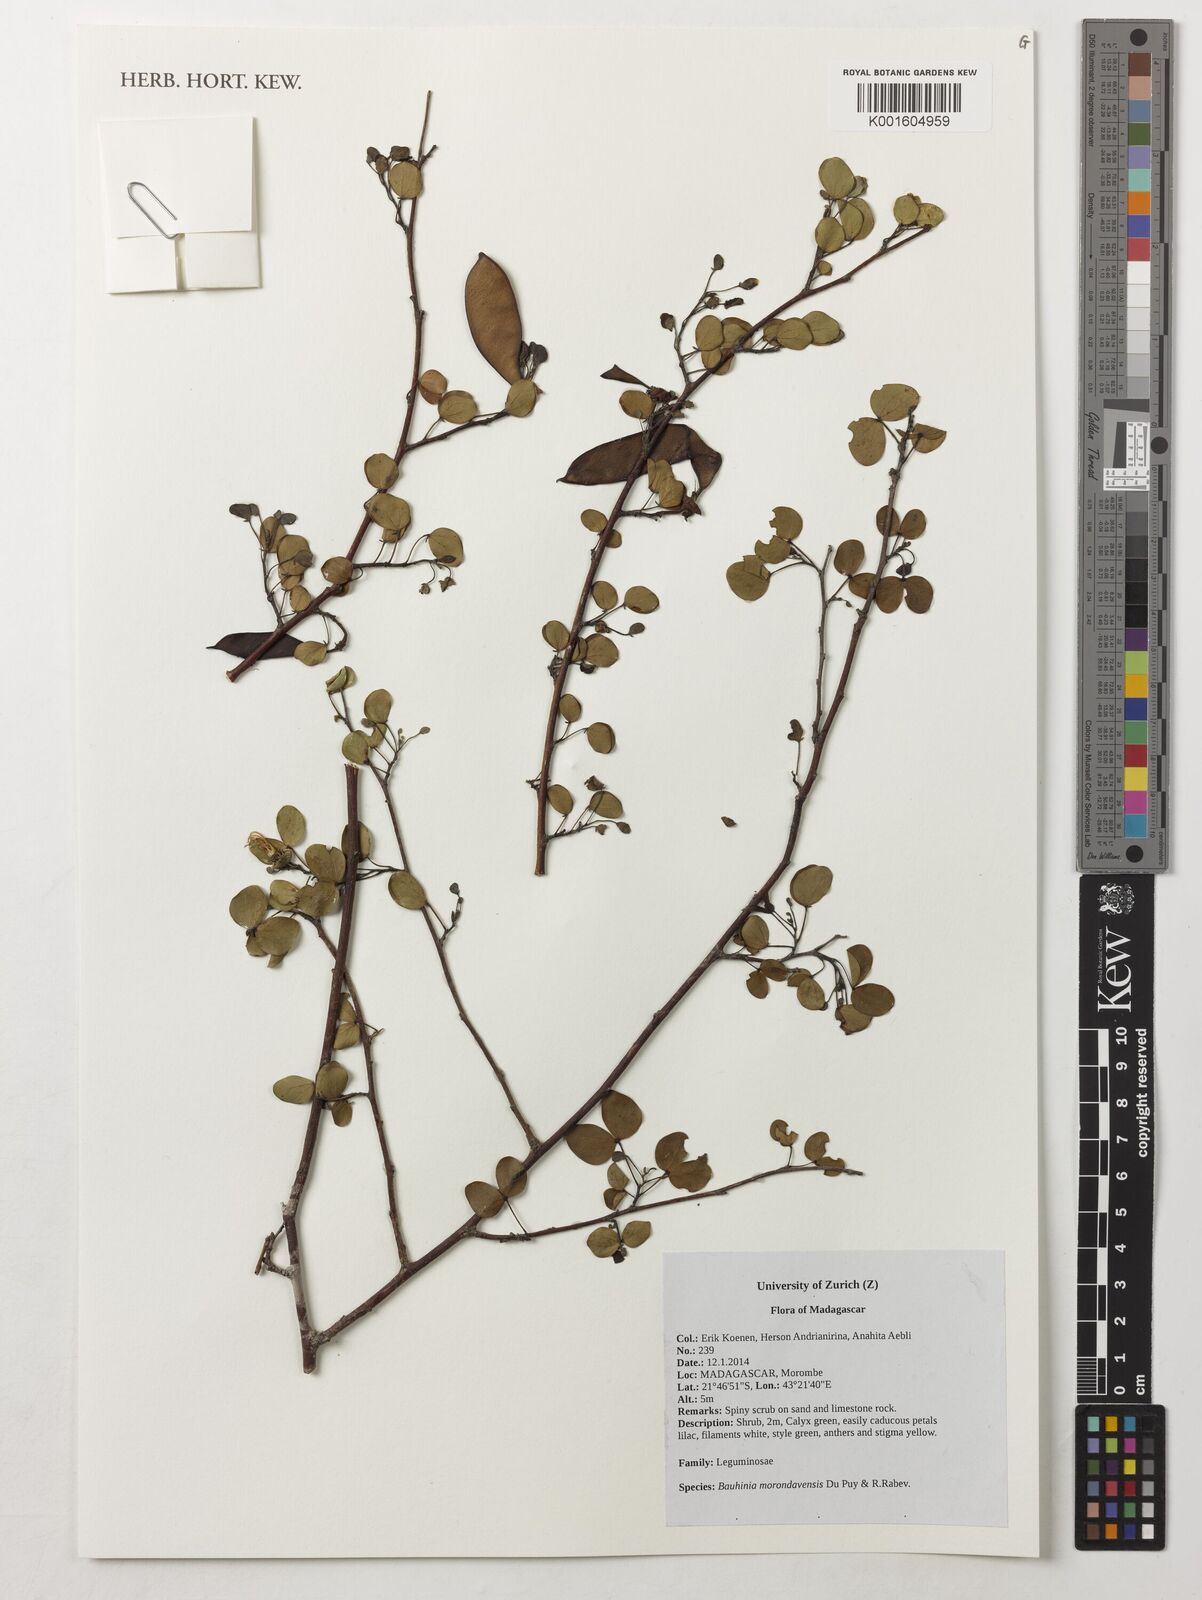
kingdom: Plantae
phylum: Tracheophyta
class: Magnoliopsida
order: Fabales
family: Fabaceae
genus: Bauhinia
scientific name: Bauhinia morondavensis
